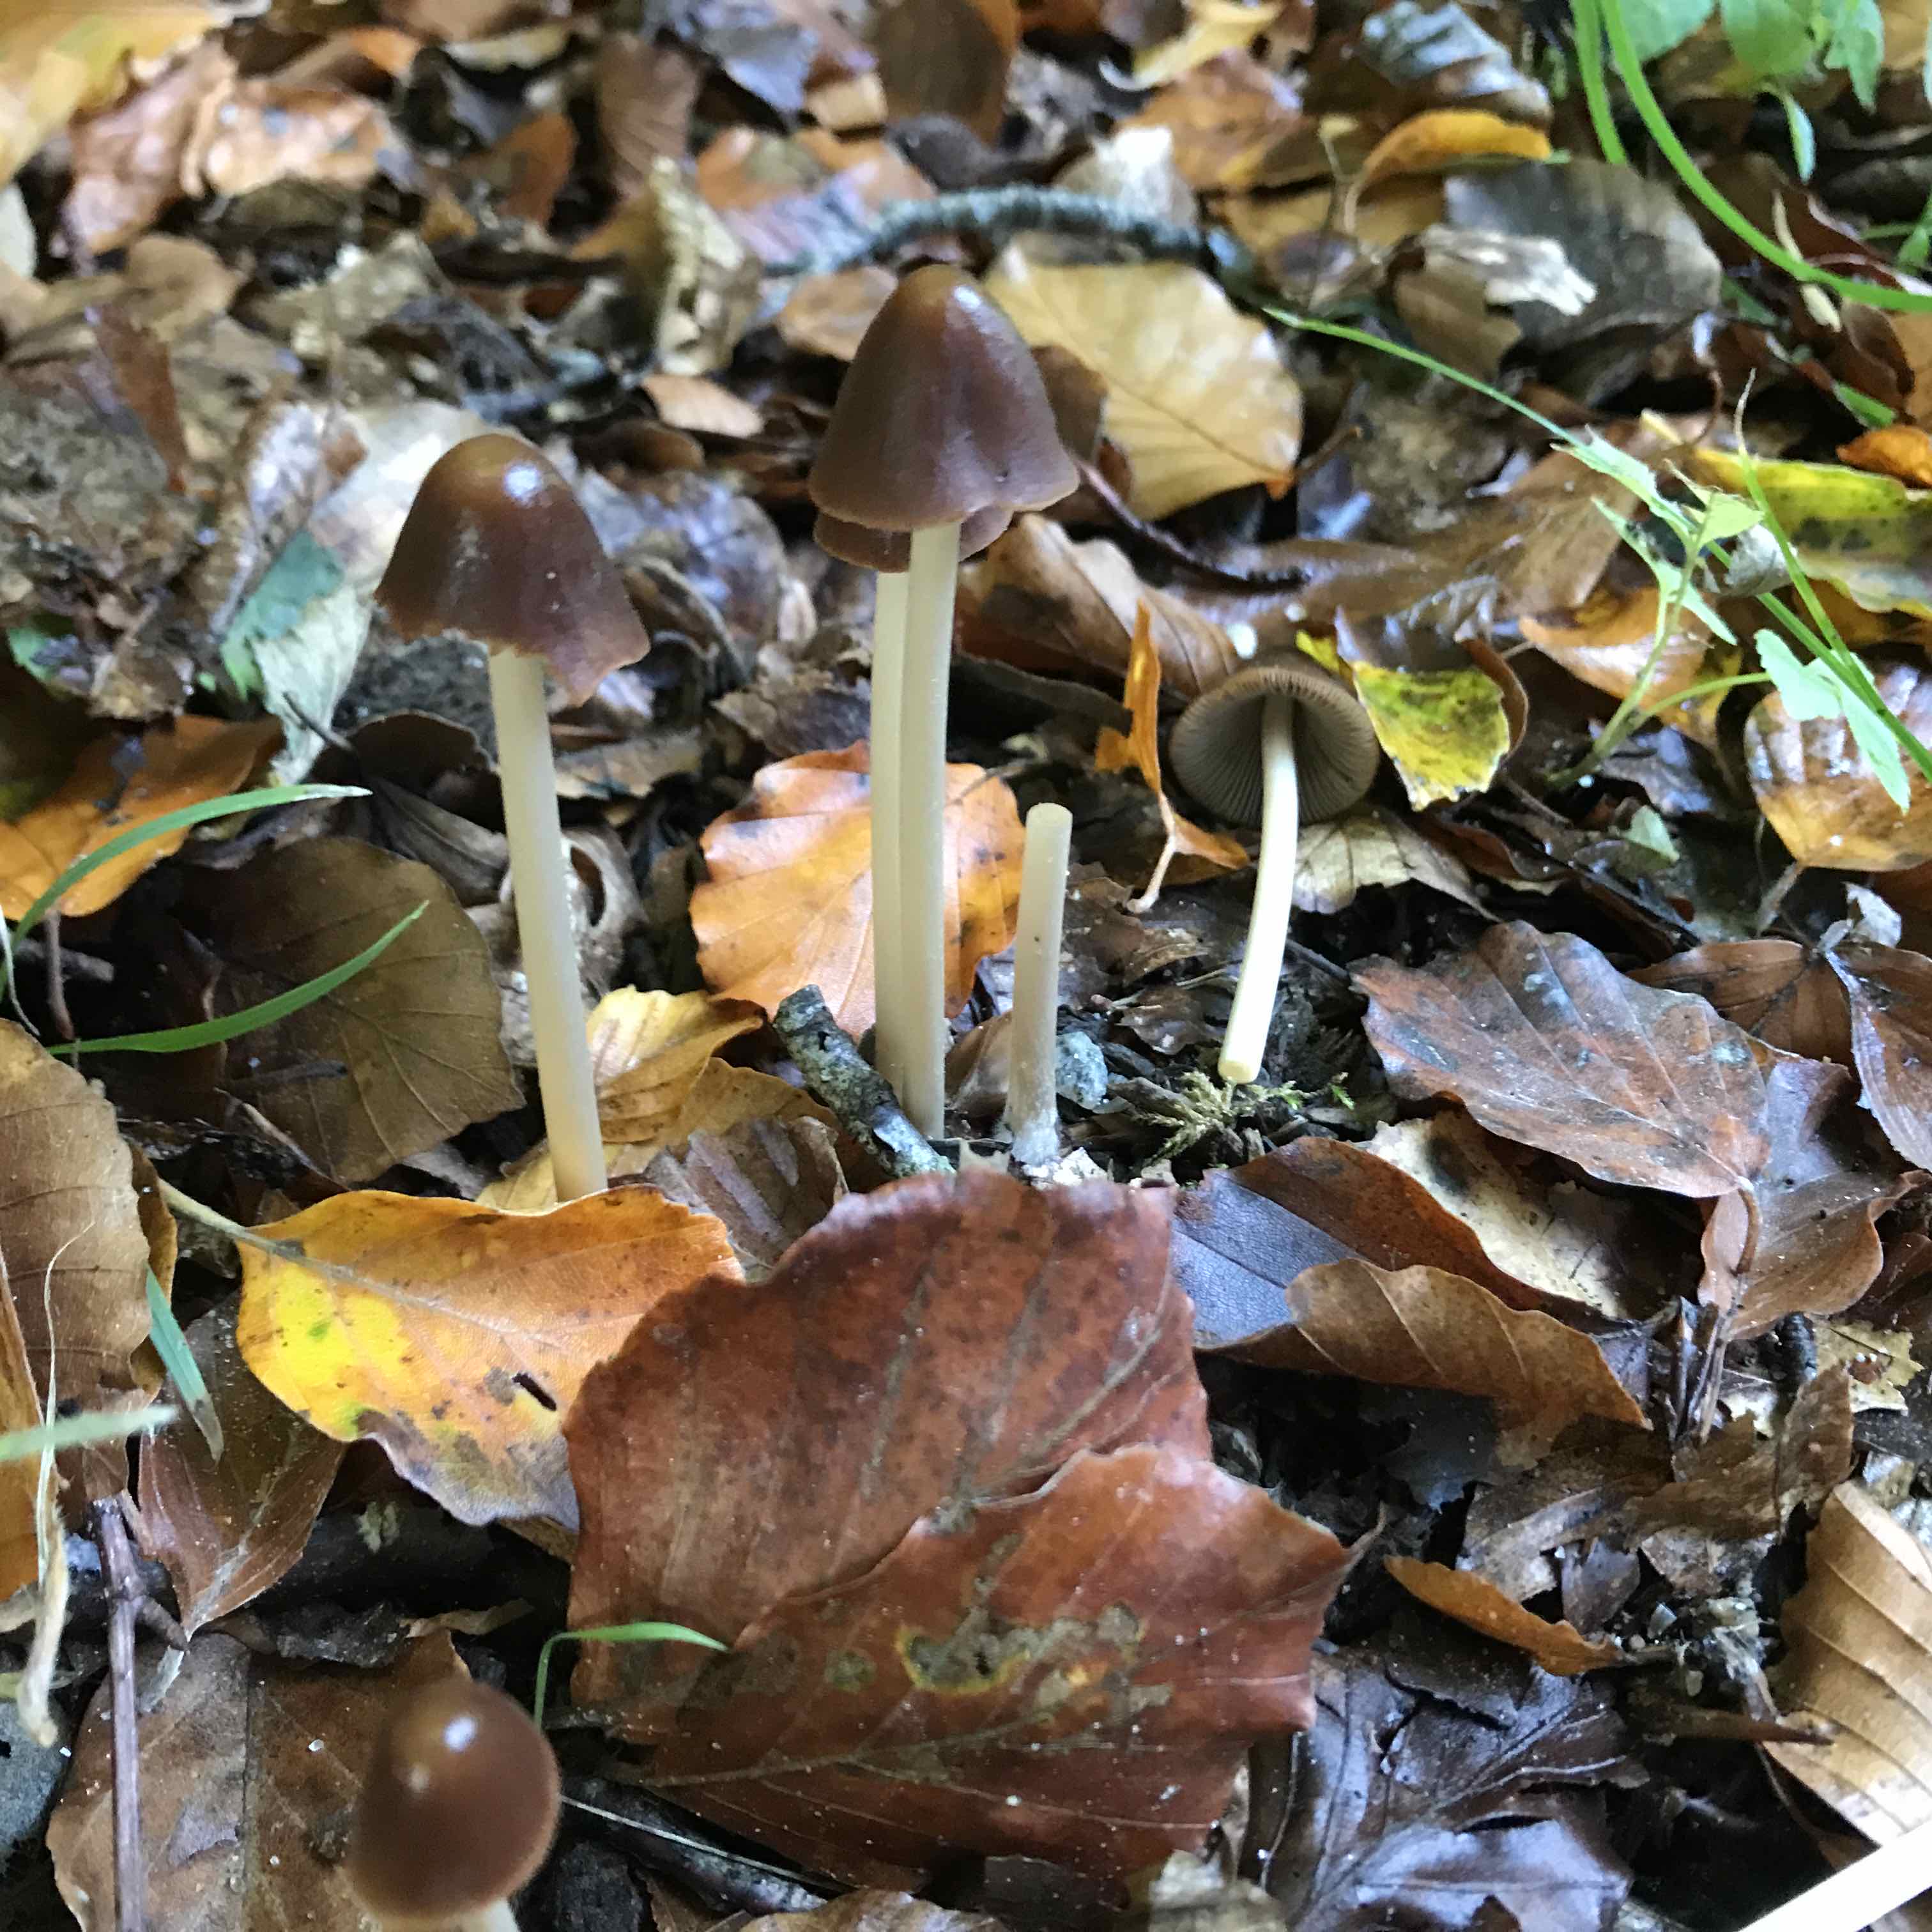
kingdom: Fungi
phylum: Basidiomycota
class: Agaricomycetes
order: Agaricales
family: Psathyrellaceae
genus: Parasola
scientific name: Parasola conopilea
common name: kegle-hjulhat
